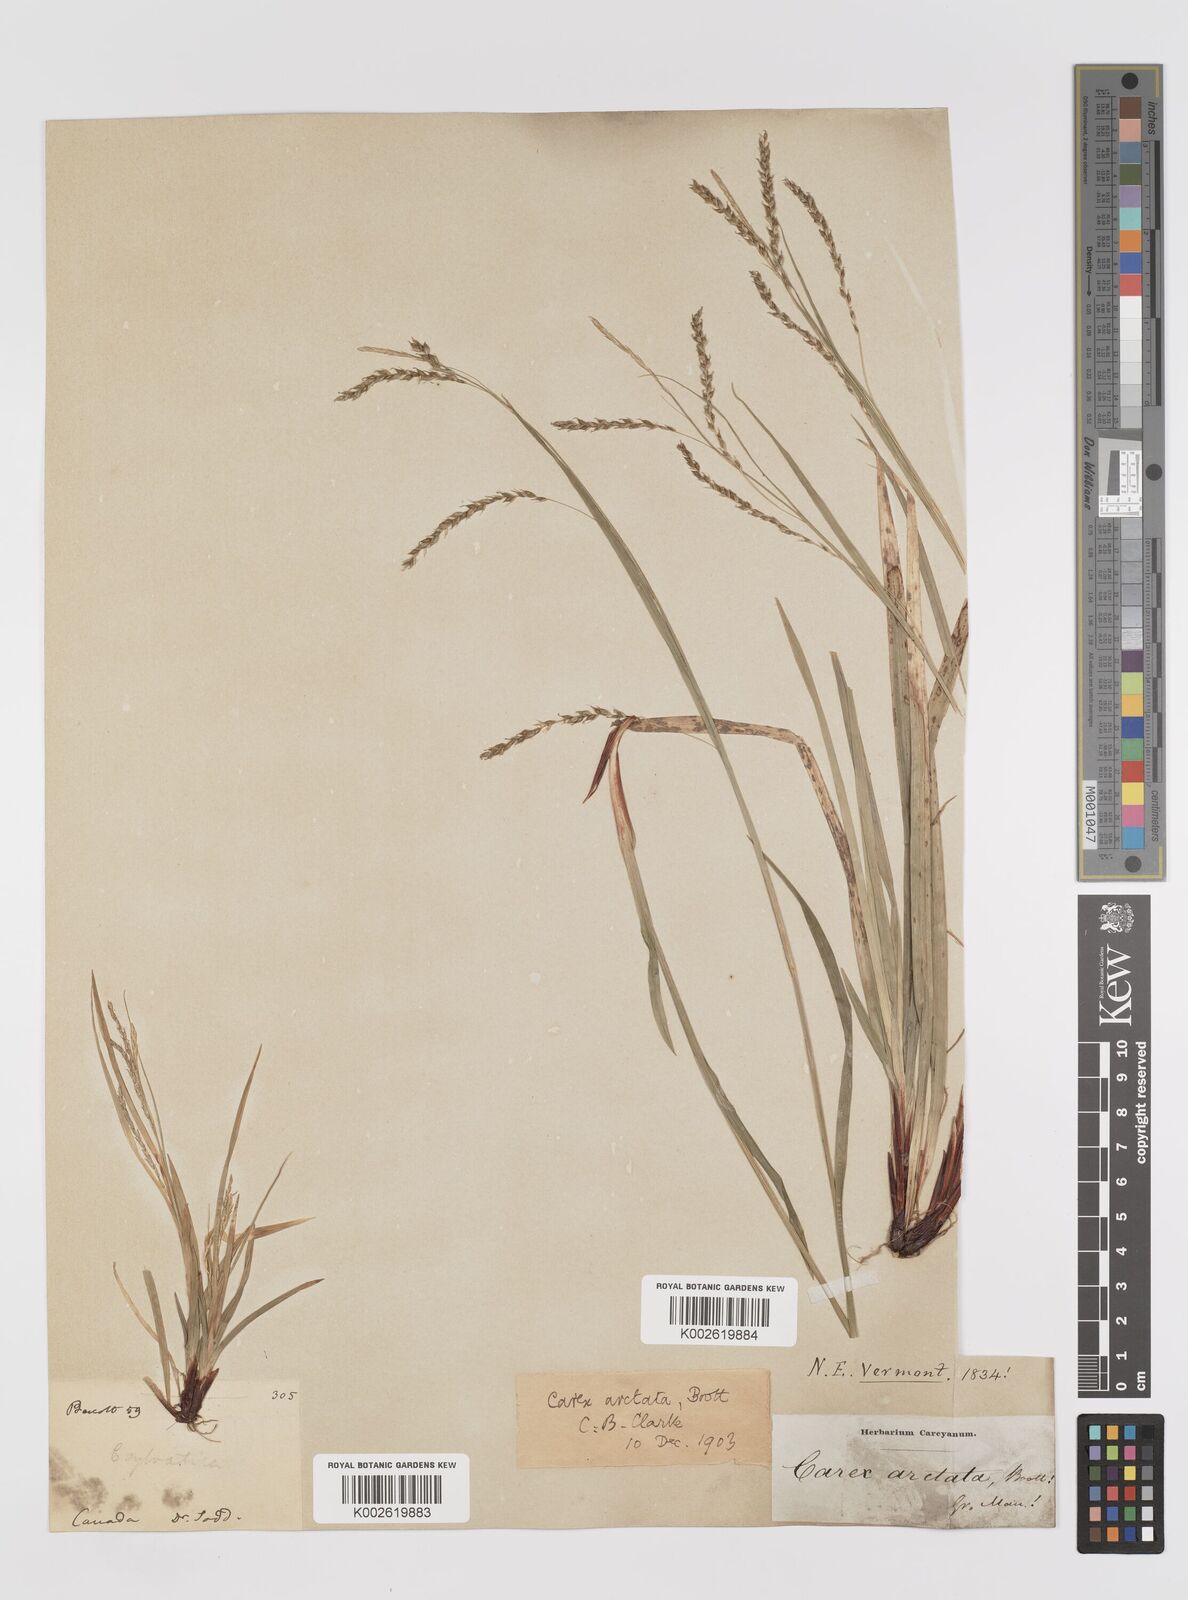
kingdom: Plantae
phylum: Tracheophyta
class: Liliopsida
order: Poales
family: Cyperaceae
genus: Carex
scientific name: Carex arctata
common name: Black sedge
